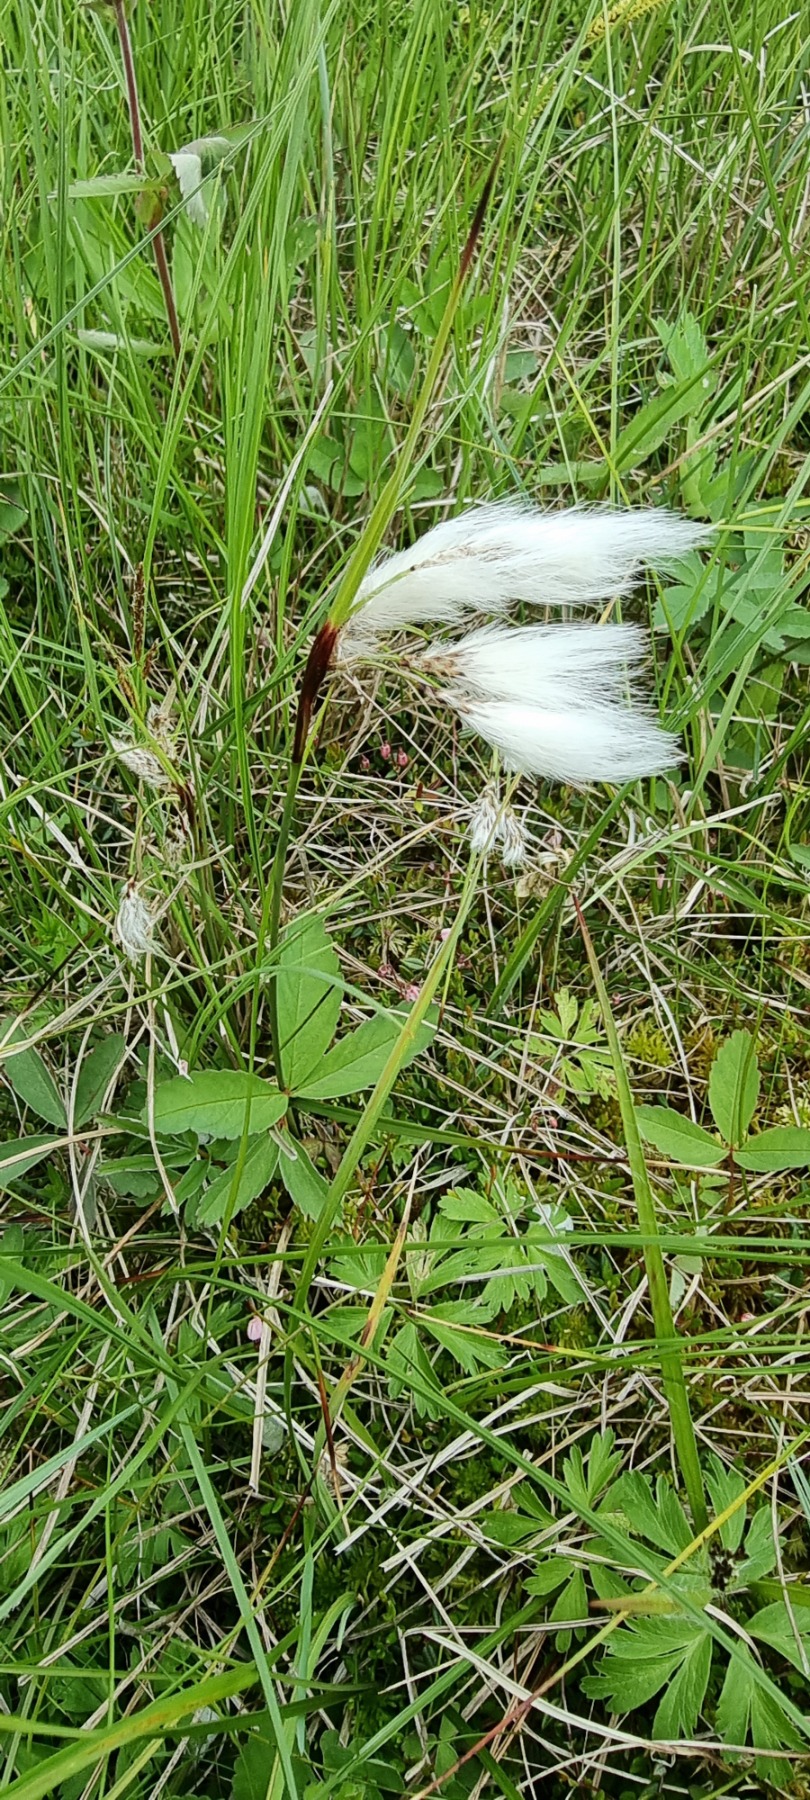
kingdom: Plantae
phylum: Tracheophyta
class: Liliopsida
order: Poales
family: Cyperaceae
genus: Eriophorum
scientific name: Eriophorum angustifolium
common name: Smalbladet kæruld
